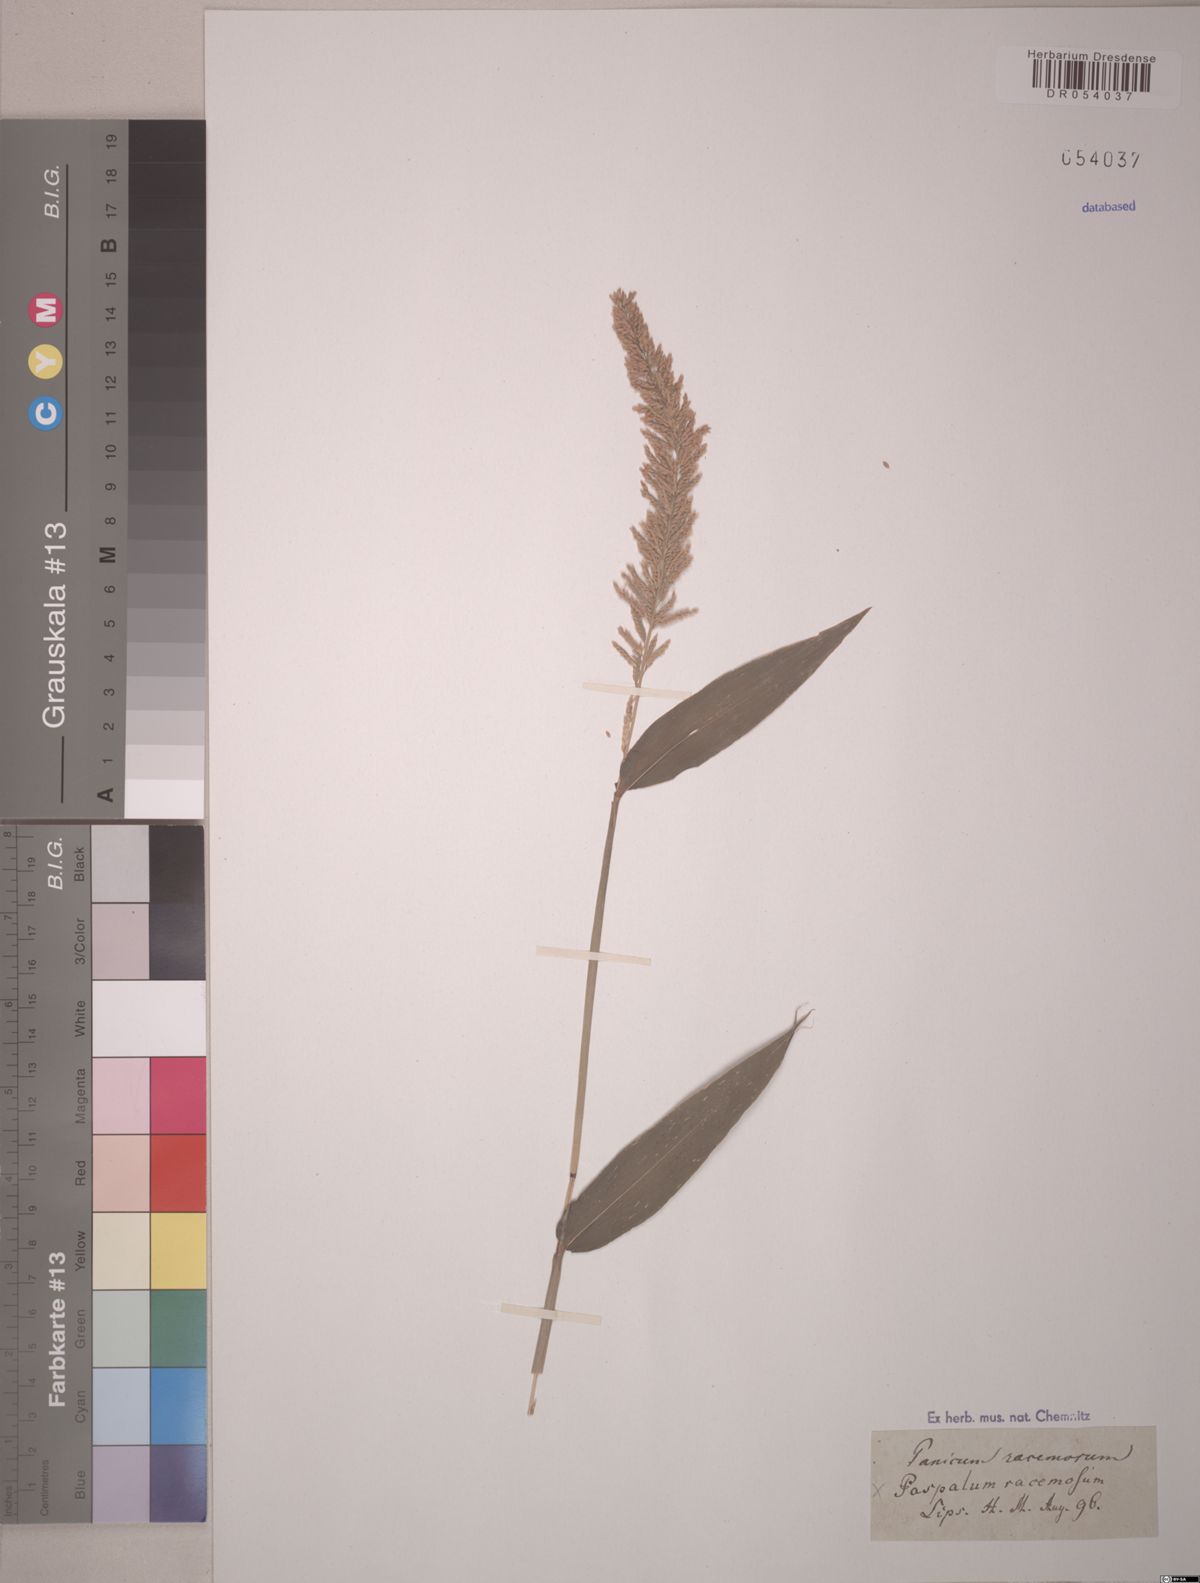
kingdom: Plantae
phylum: Tracheophyta
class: Liliopsida
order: Poales
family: Poaceae
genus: Paspalum
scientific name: Paspalum racemosum
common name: Peruvian paspalum
